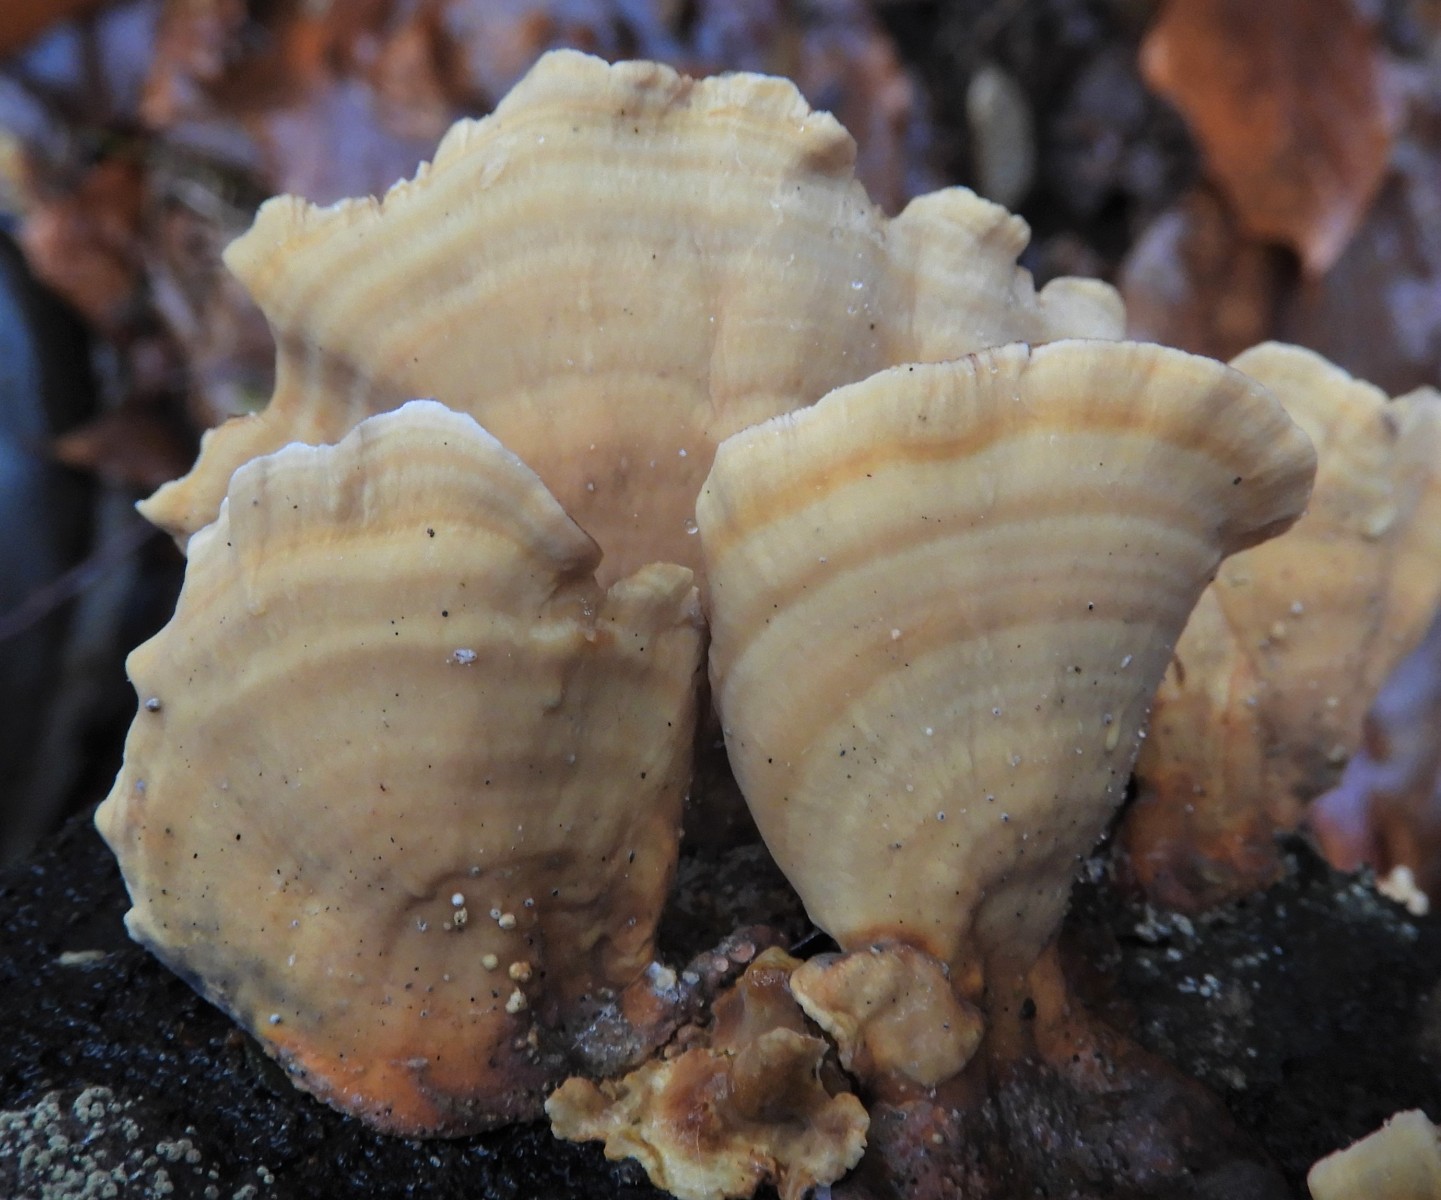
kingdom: Fungi
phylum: Basidiomycota
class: Agaricomycetes
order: Russulales
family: Stereaceae
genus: Stereum
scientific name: Stereum subtomentosum
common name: smuk lædersvamp
